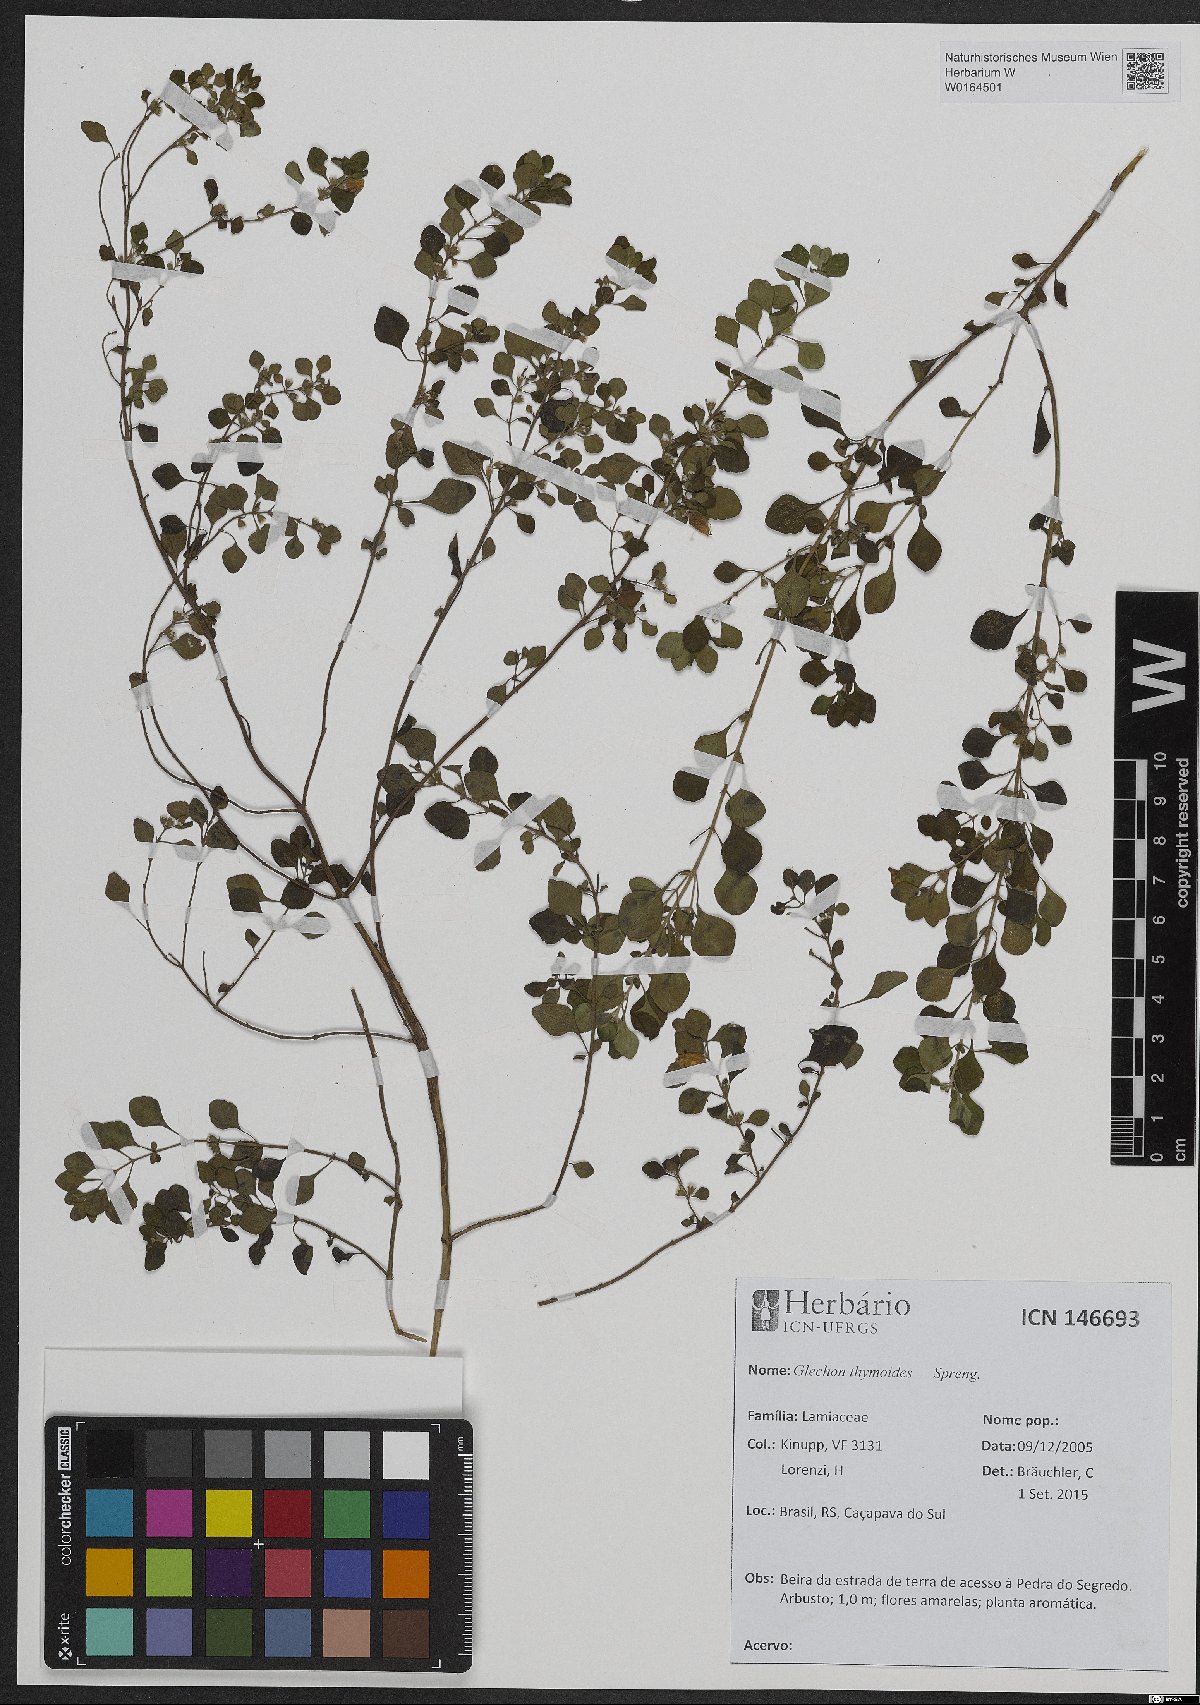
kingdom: Plantae
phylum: Tracheophyta
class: Magnoliopsida
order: Lamiales
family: Lamiaceae
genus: Glechon
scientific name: Glechon thymoides
